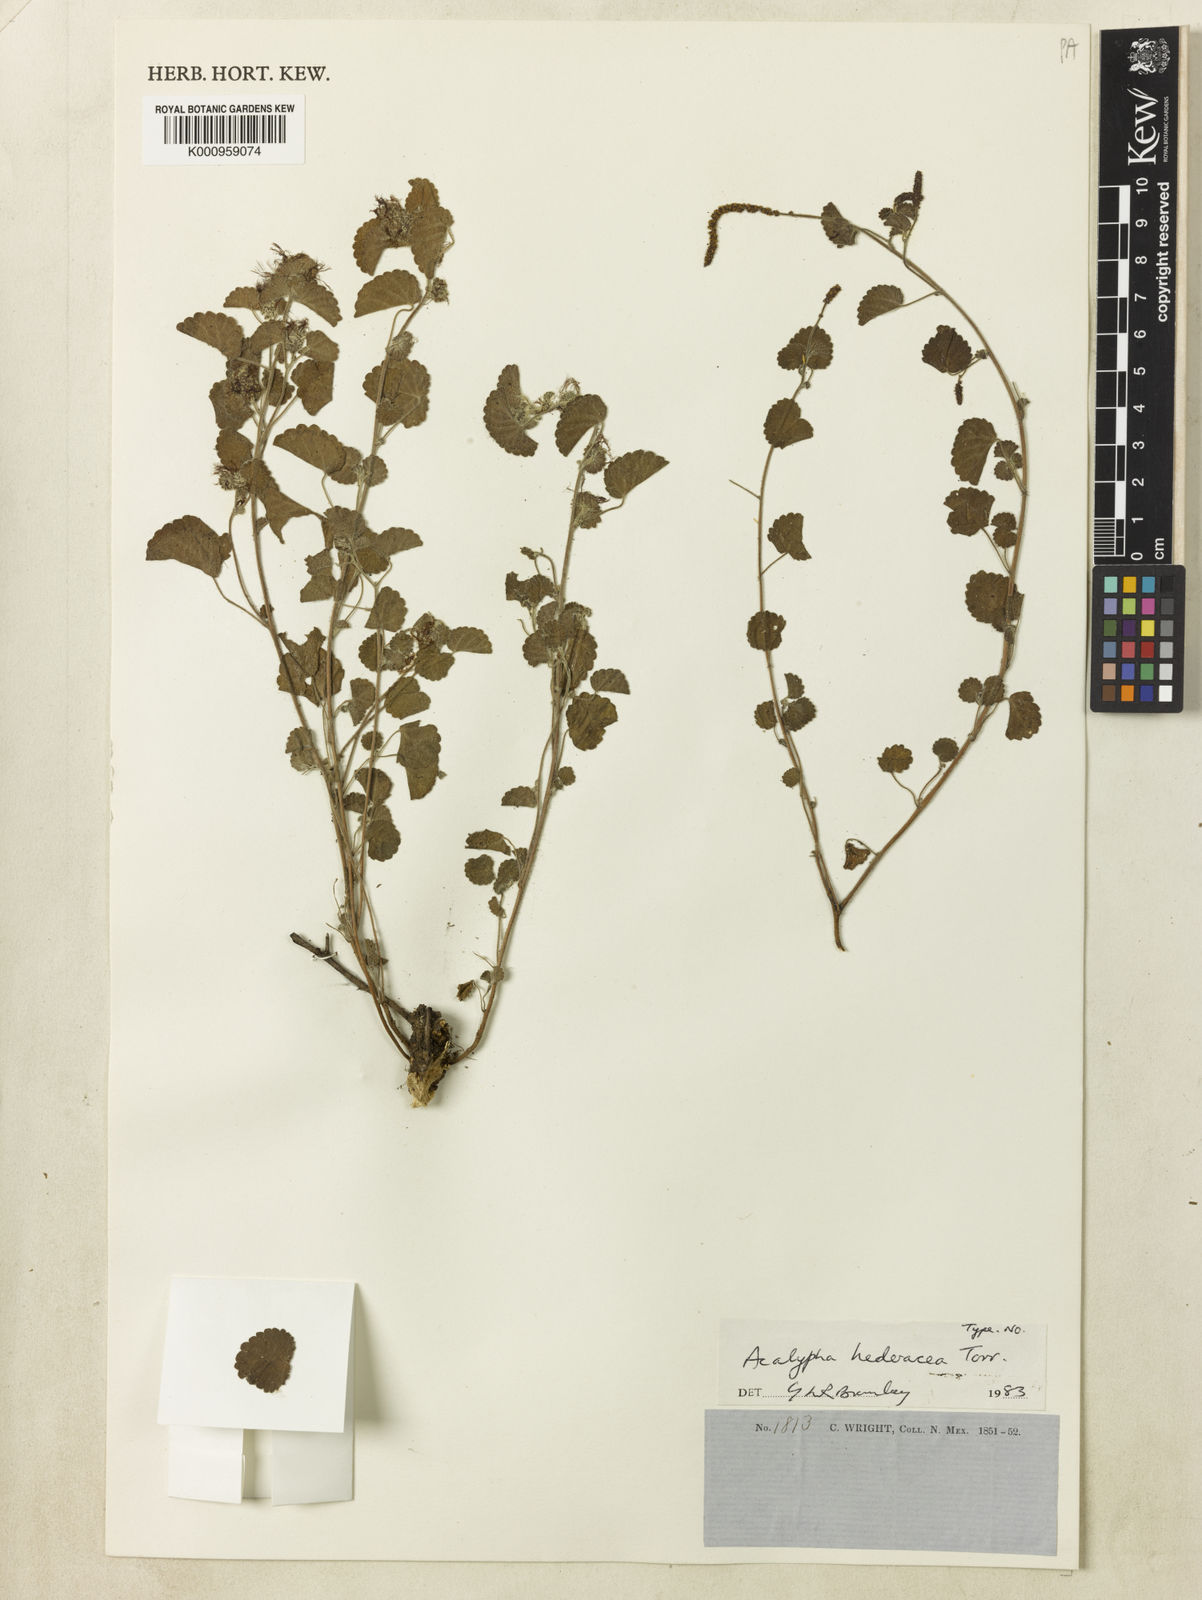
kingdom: Plantae
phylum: Tracheophyta
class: Magnoliopsida
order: Malpighiales
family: Euphorbiaceae
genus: Acalypha
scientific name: Acalypha monostachya
